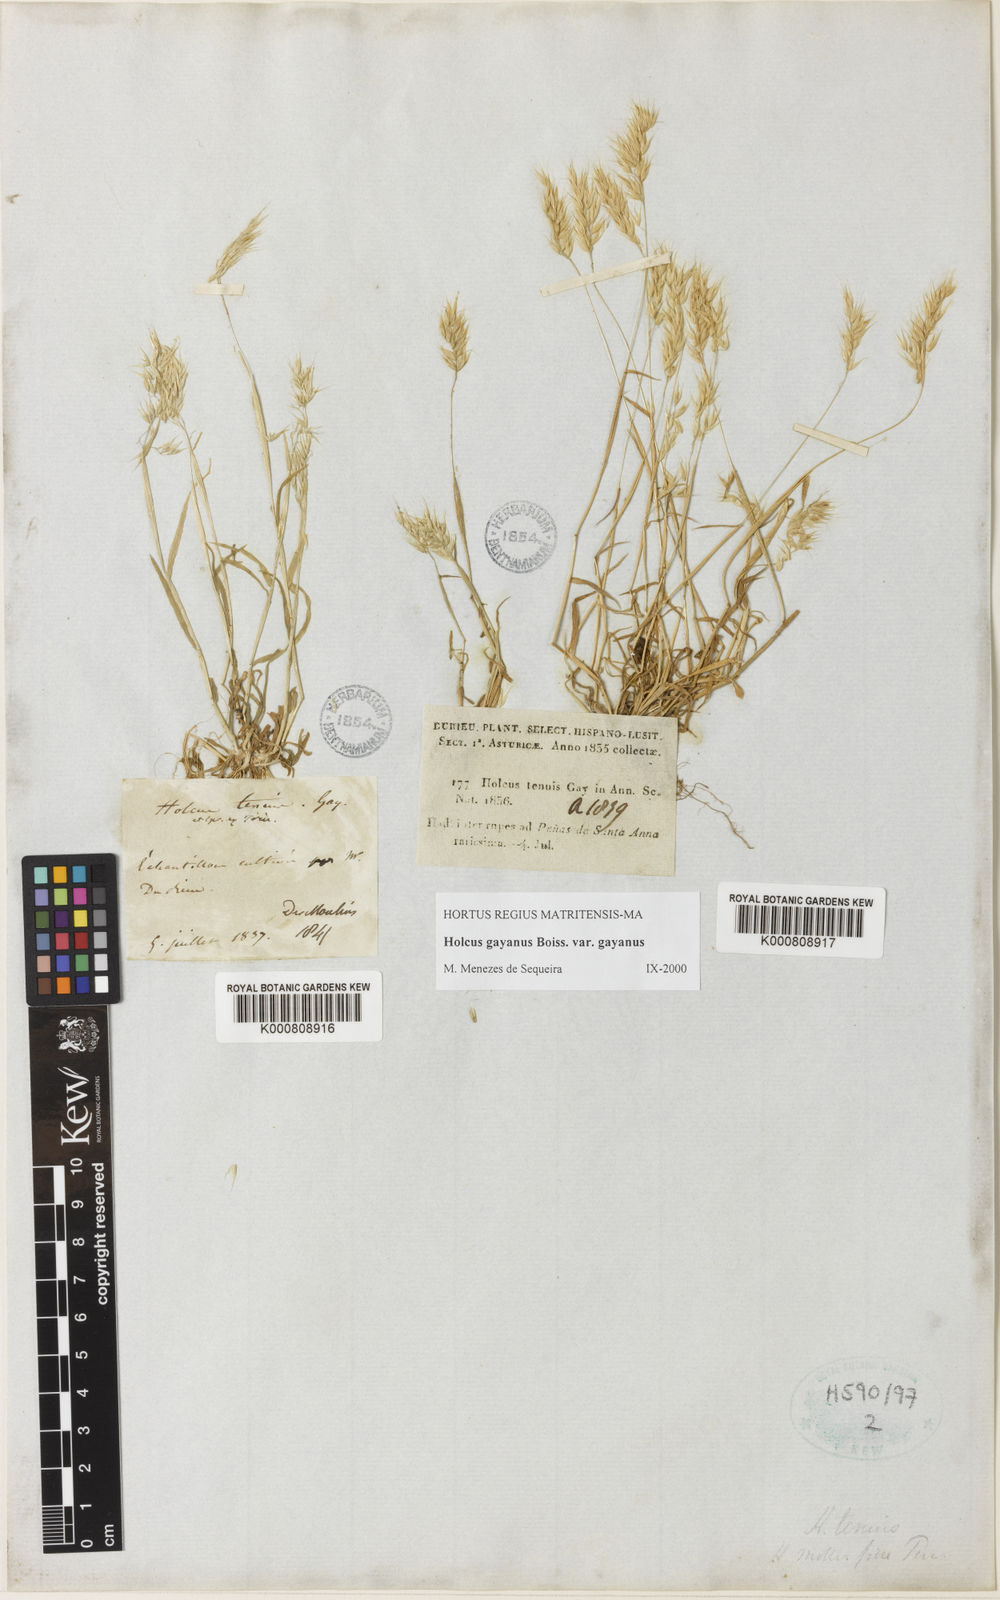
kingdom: Plantae
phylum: Tracheophyta
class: Liliopsida
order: Poales
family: Poaceae
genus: Holcus
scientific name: Holcus mollis
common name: Creeping velvetgrass
